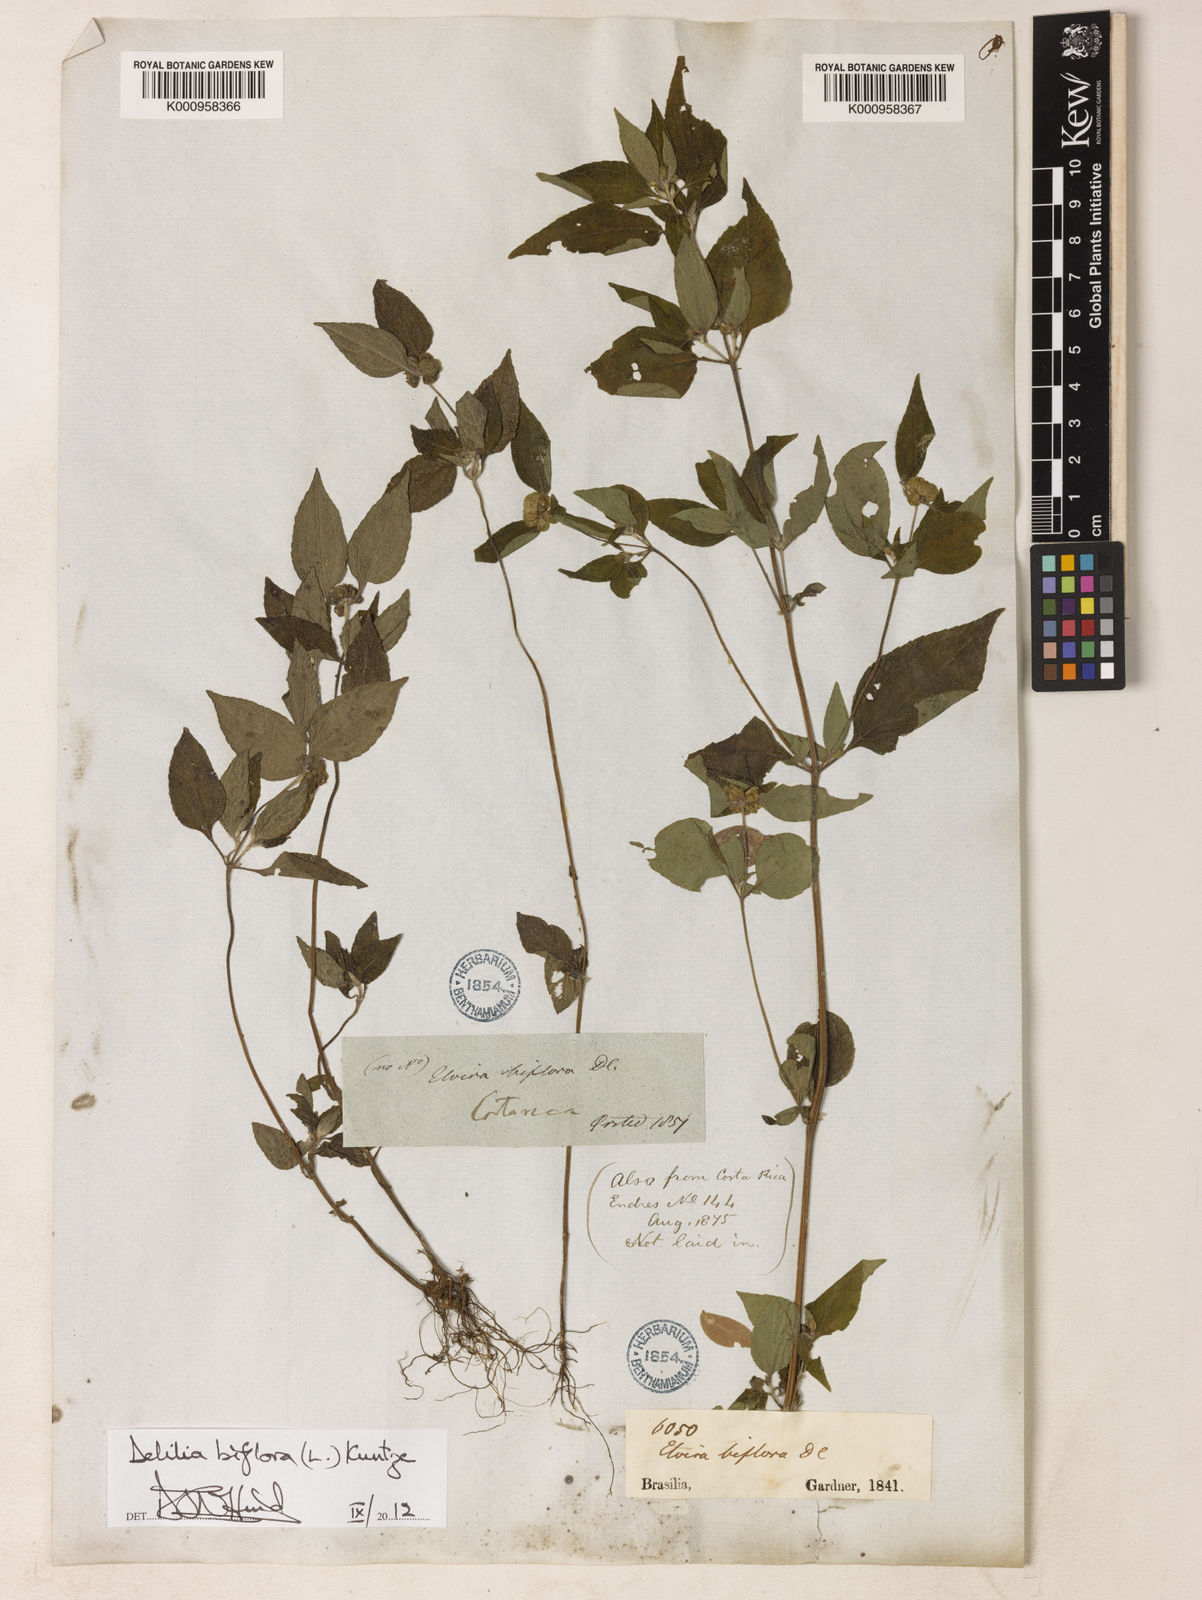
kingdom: Plantae
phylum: Tracheophyta
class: Magnoliopsida
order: Asterales
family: Asteraceae
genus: Delilia
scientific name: Delilia biflora
